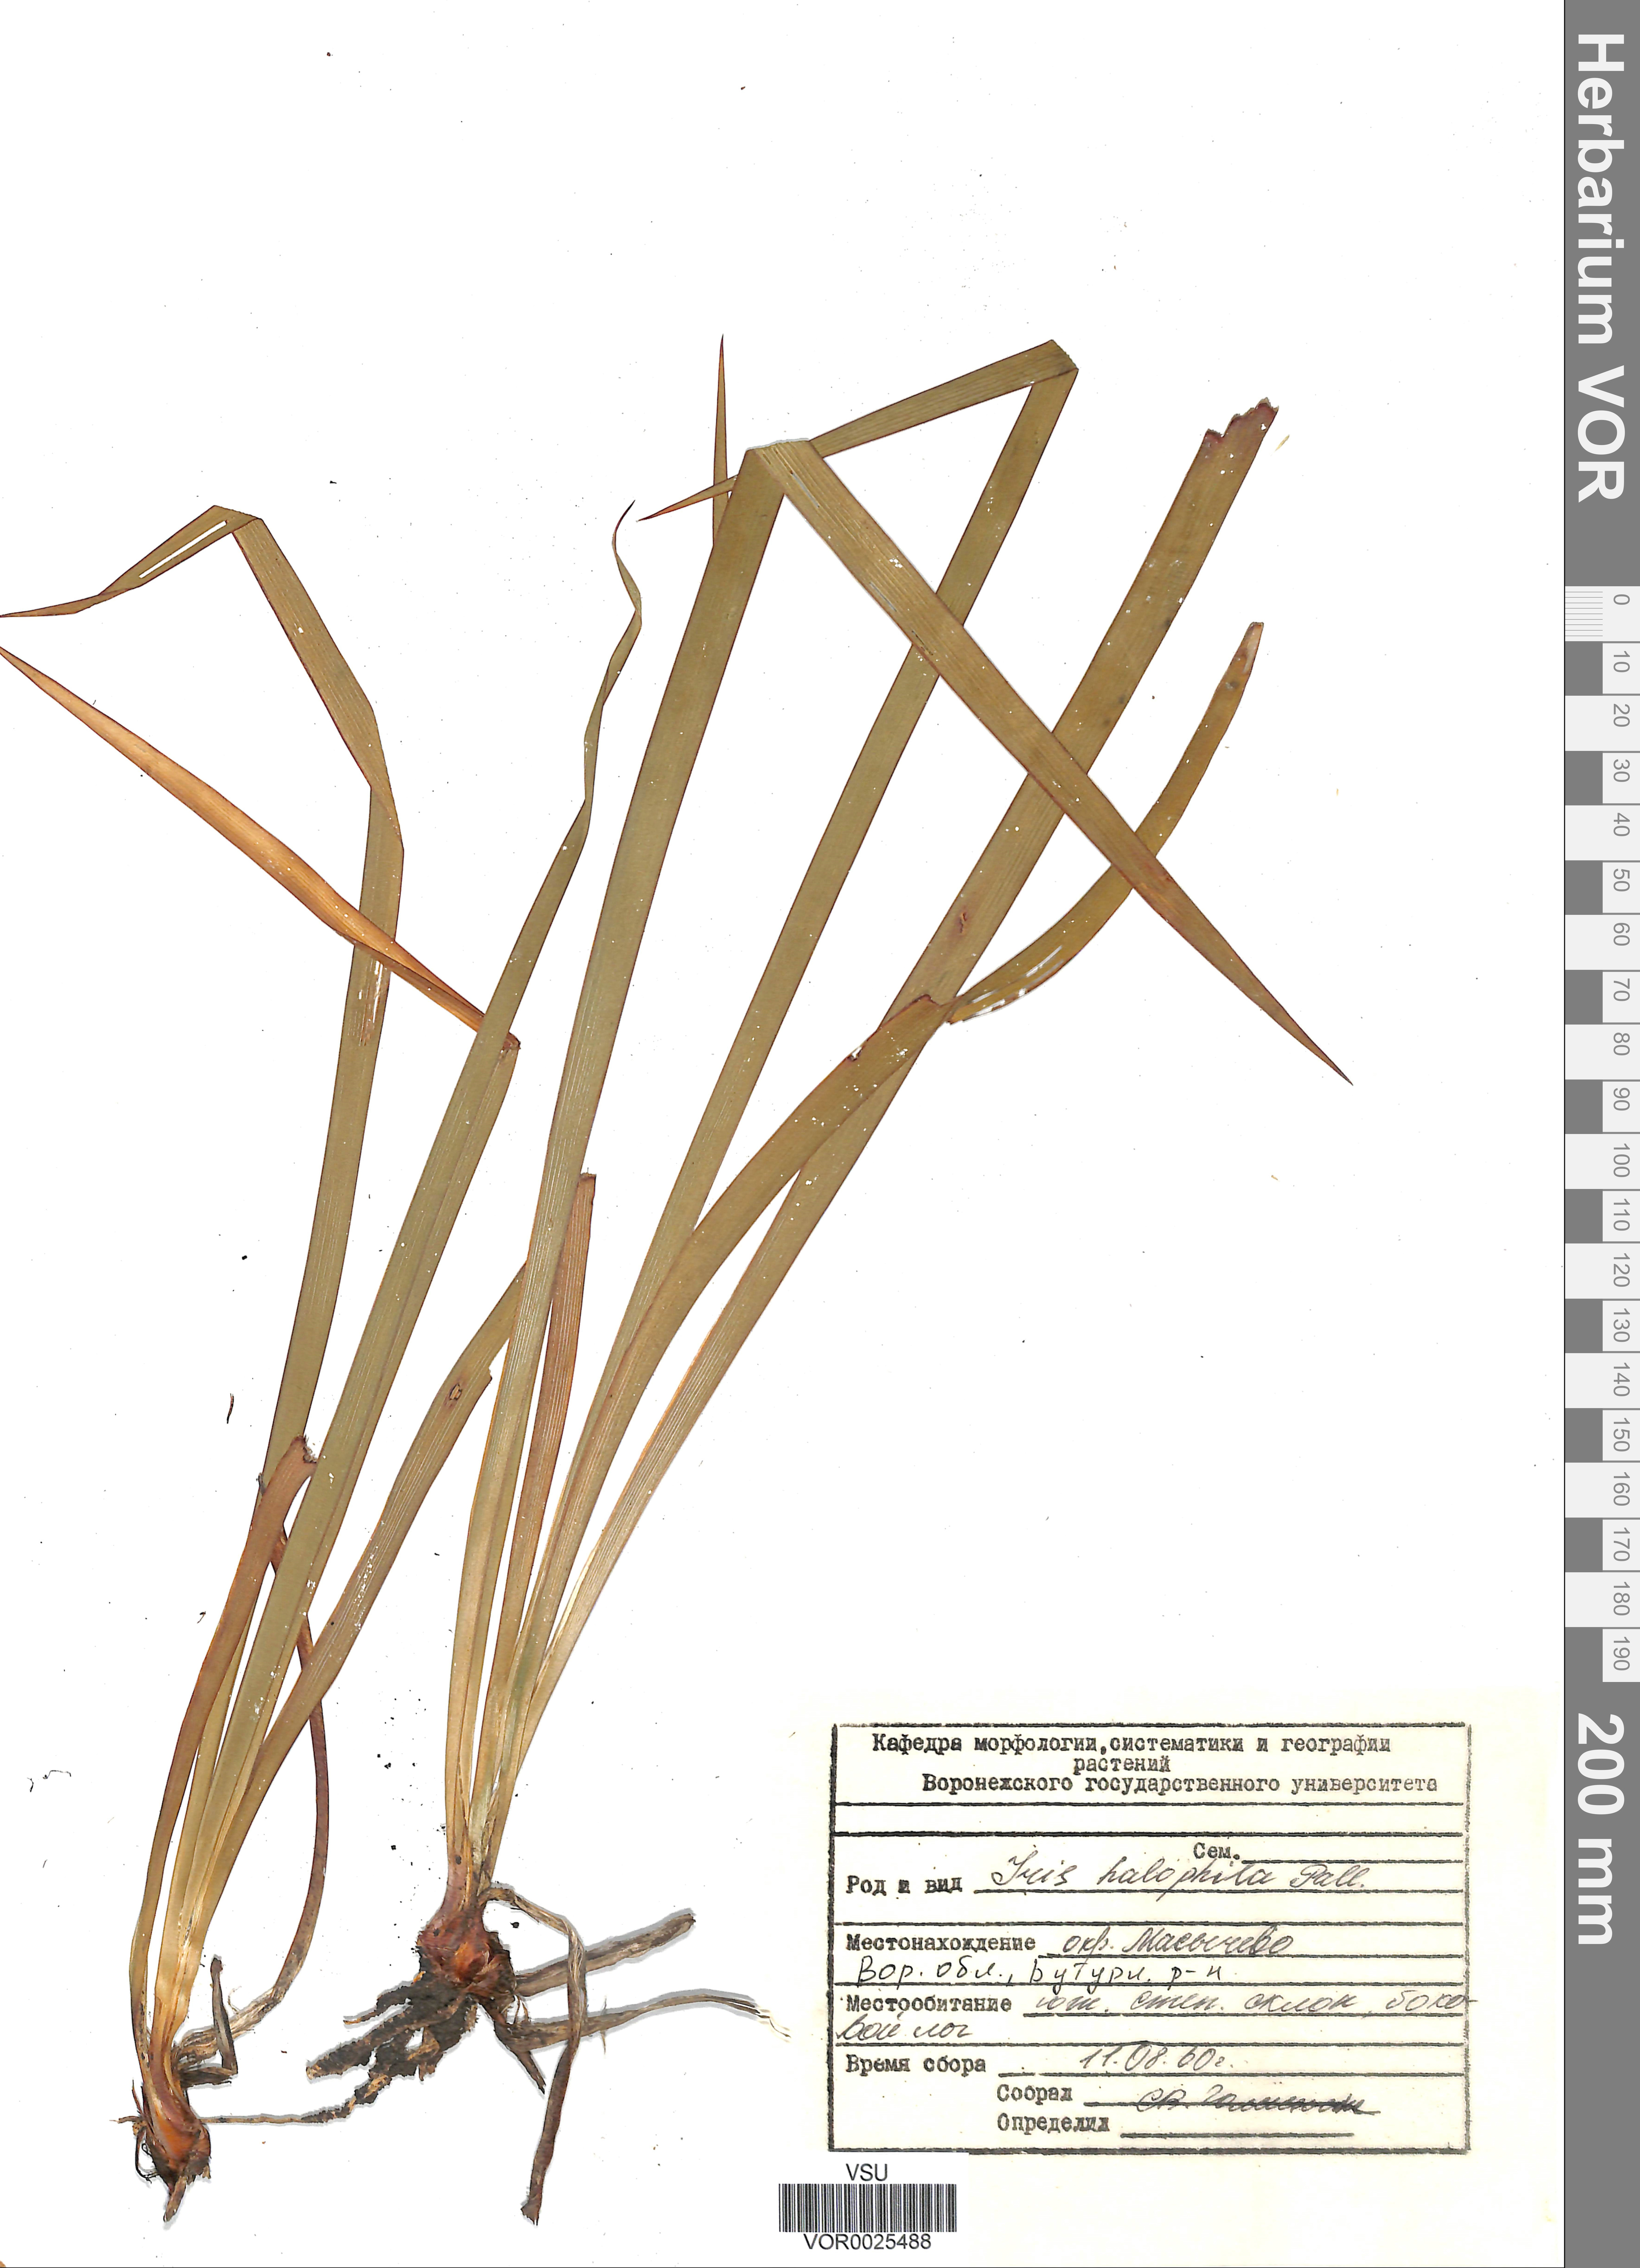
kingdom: Plantae
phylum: Tracheophyta
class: Liliopsida
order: Asparagales
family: Iridaceae
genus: Iris
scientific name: Iris halophila
